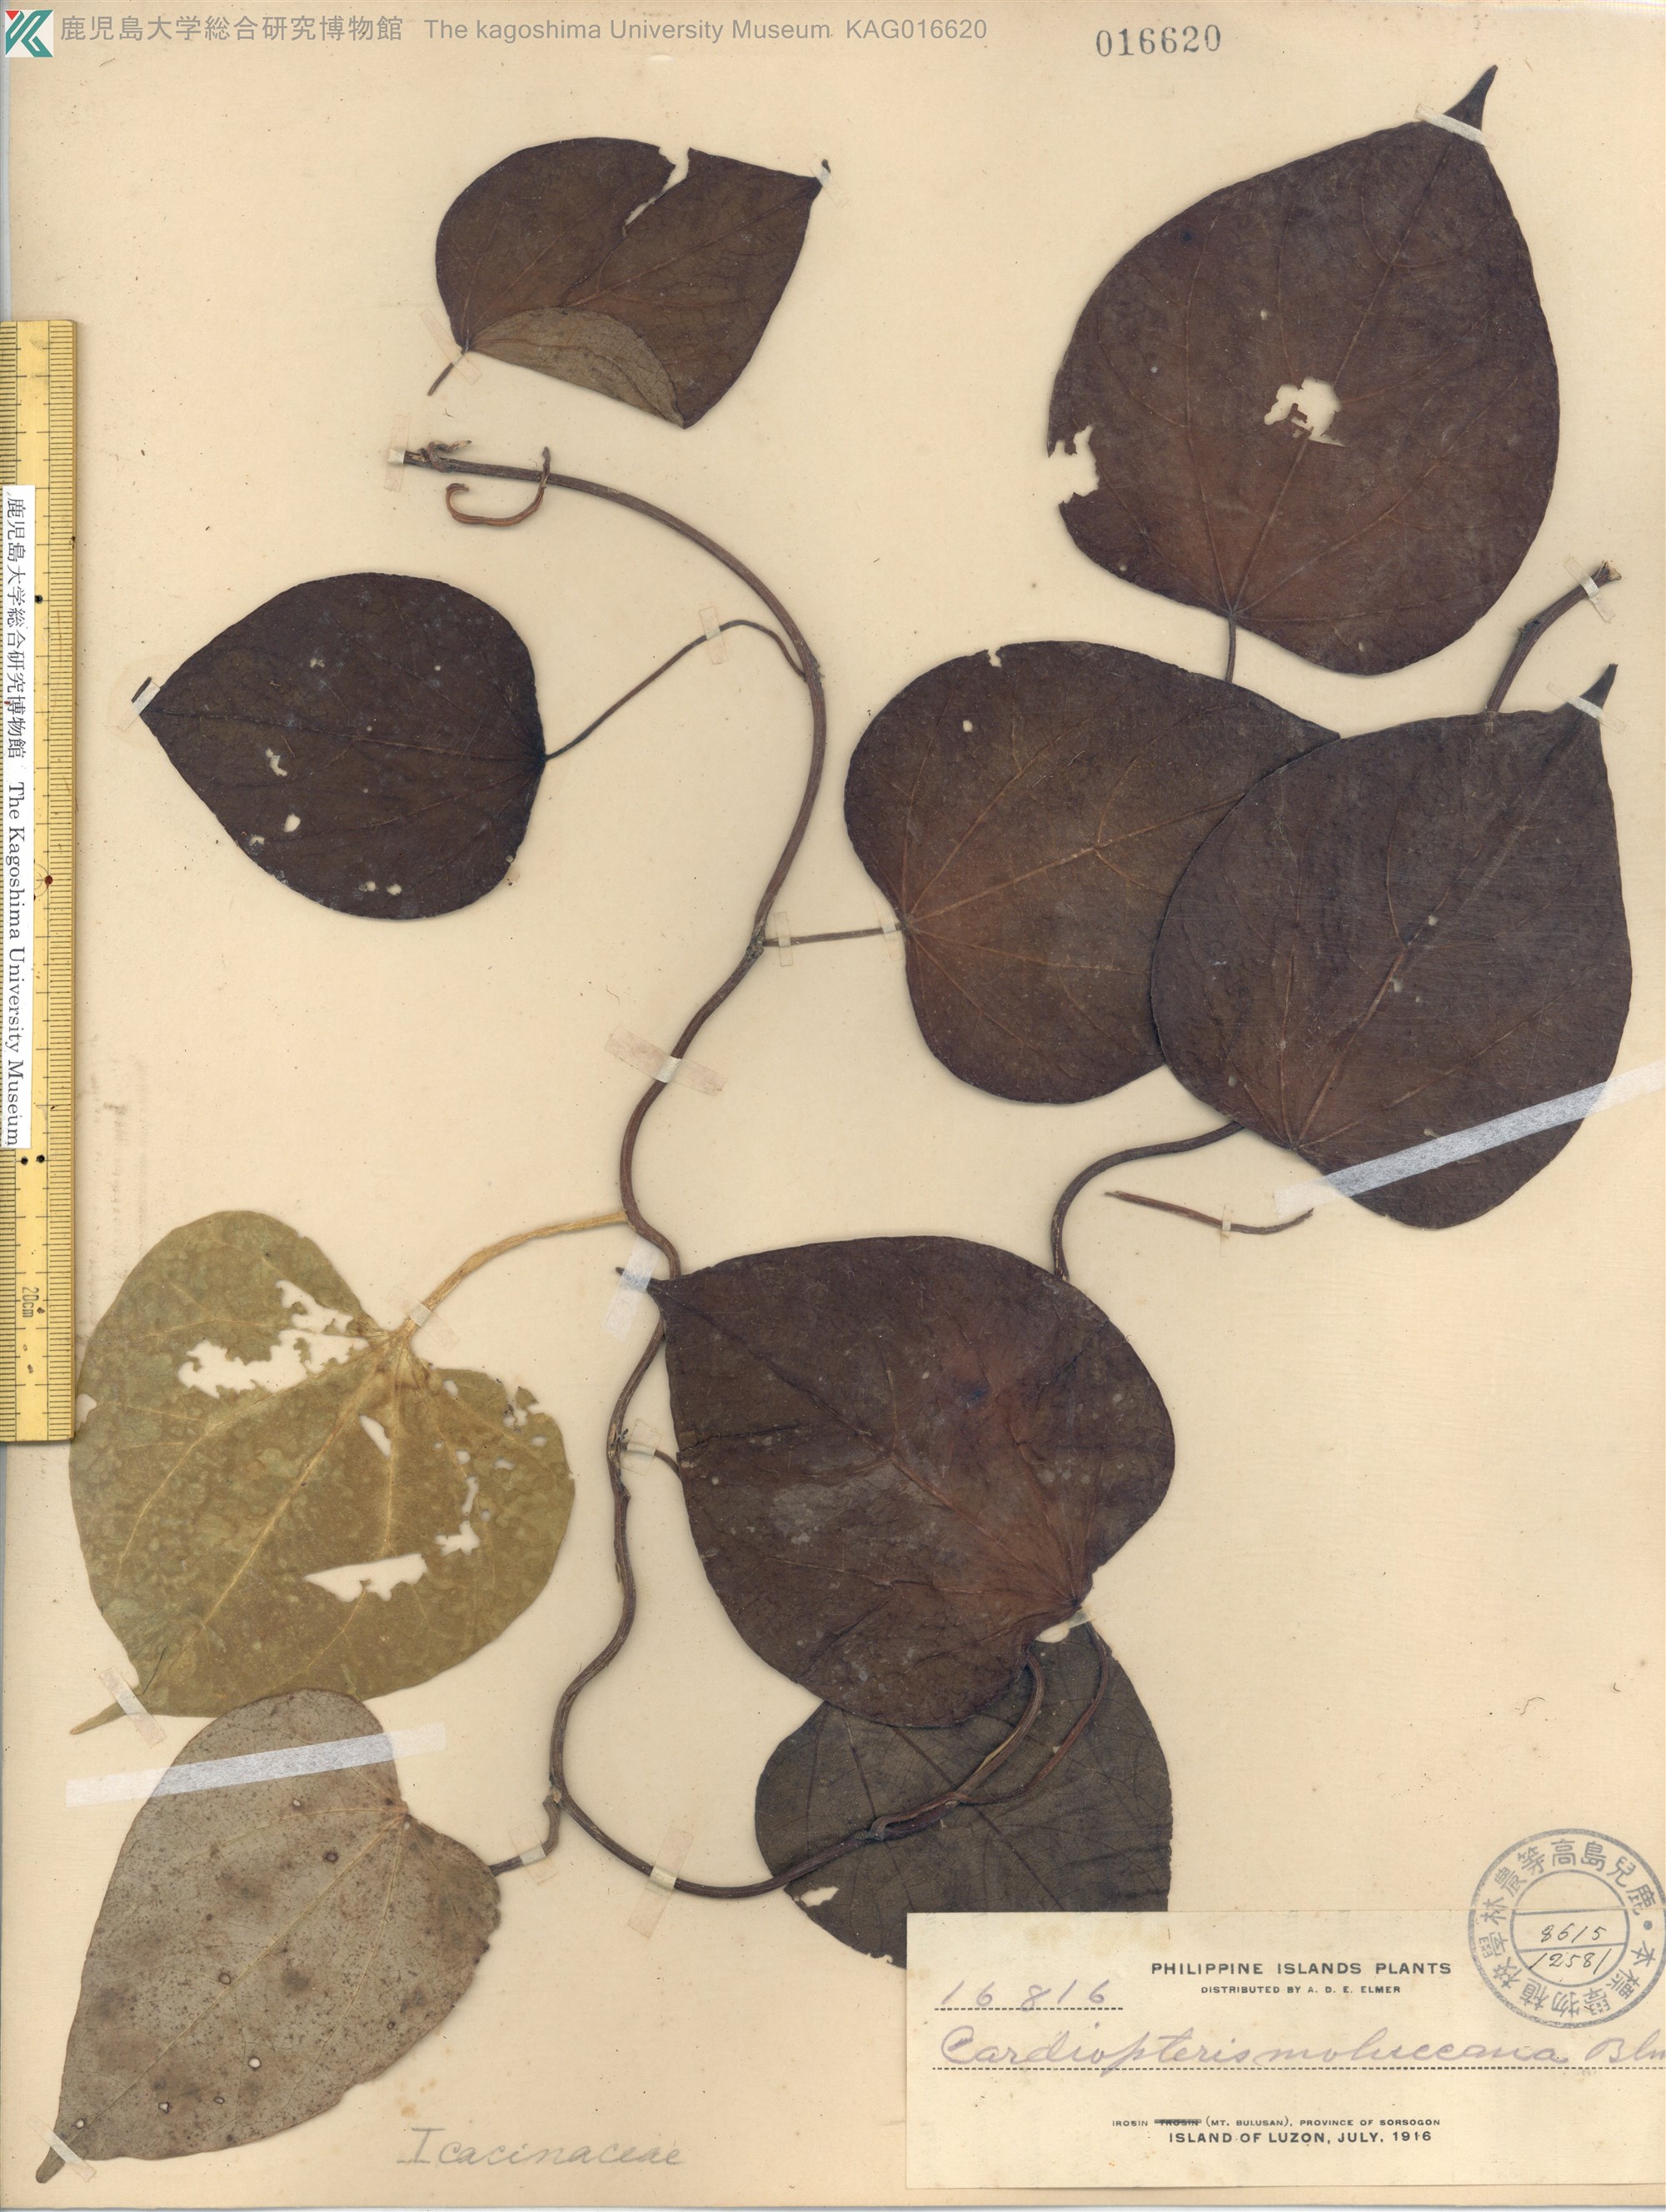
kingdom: Plantae
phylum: Tracheophyta
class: Magnoliopsida
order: Cardiopteridales
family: Cardiopteridaceae
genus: Cardiopteris
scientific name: Cardiopteris moluccana
